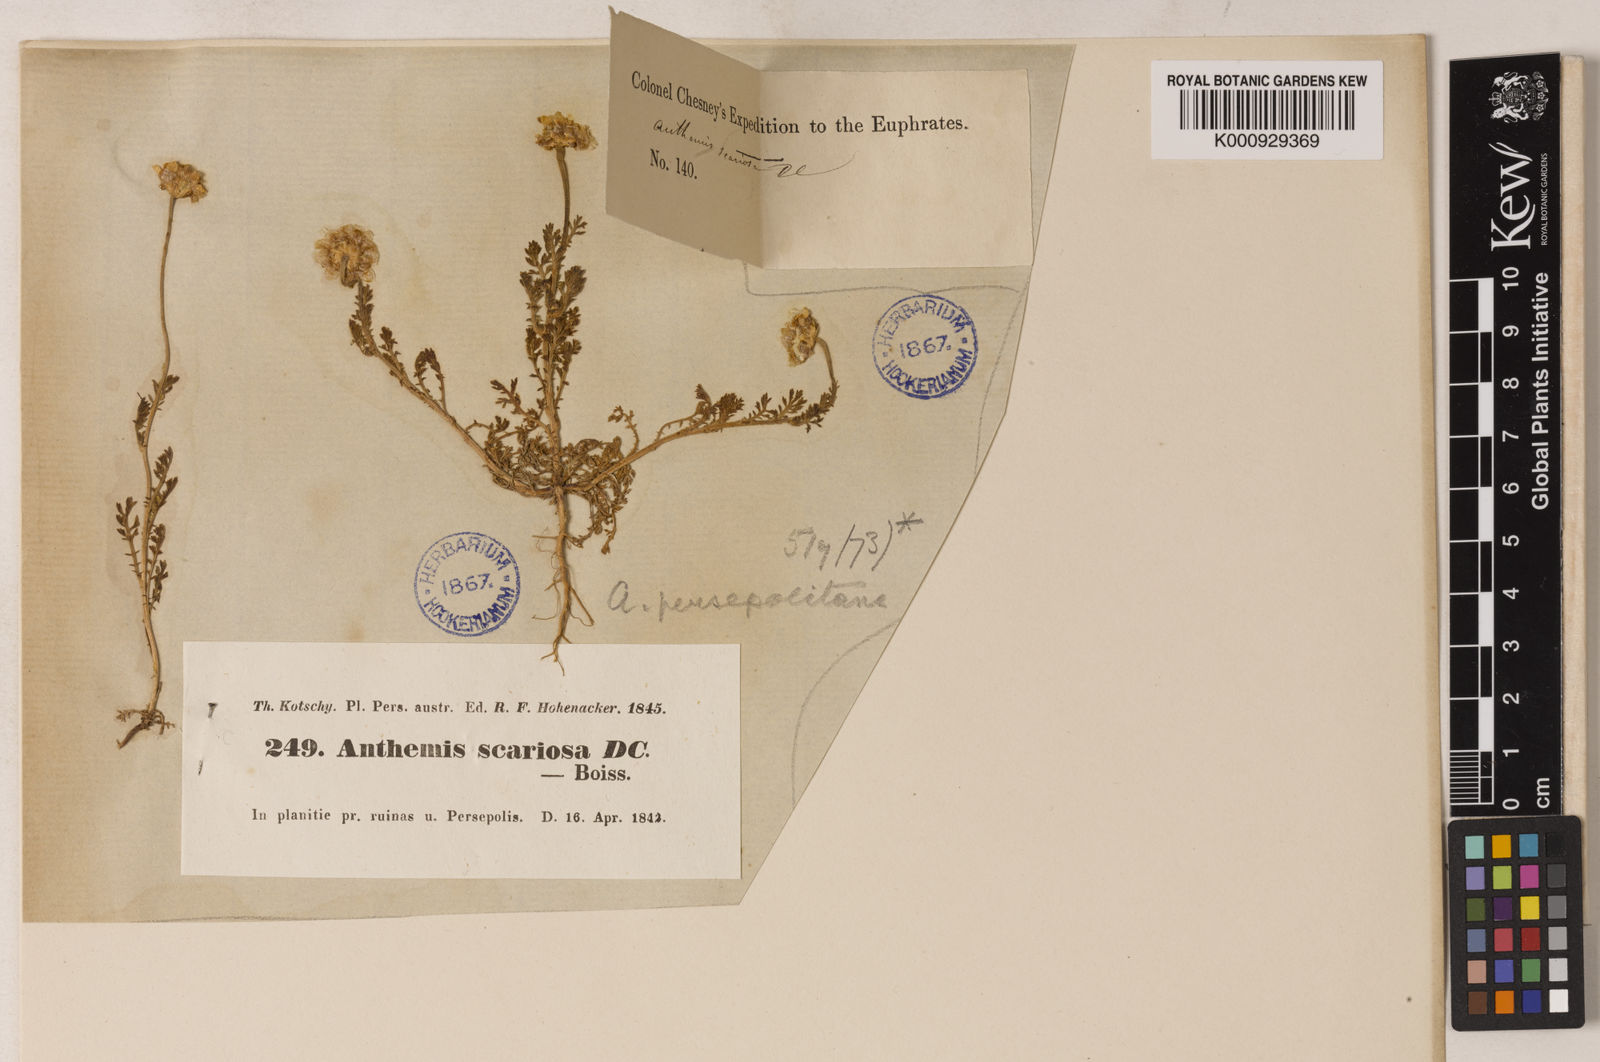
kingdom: Plantae
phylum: Tracheophyta
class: Magnoliopsida
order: Asterales
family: Asteraceae
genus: Anthemis
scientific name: Anthemis scariosa
